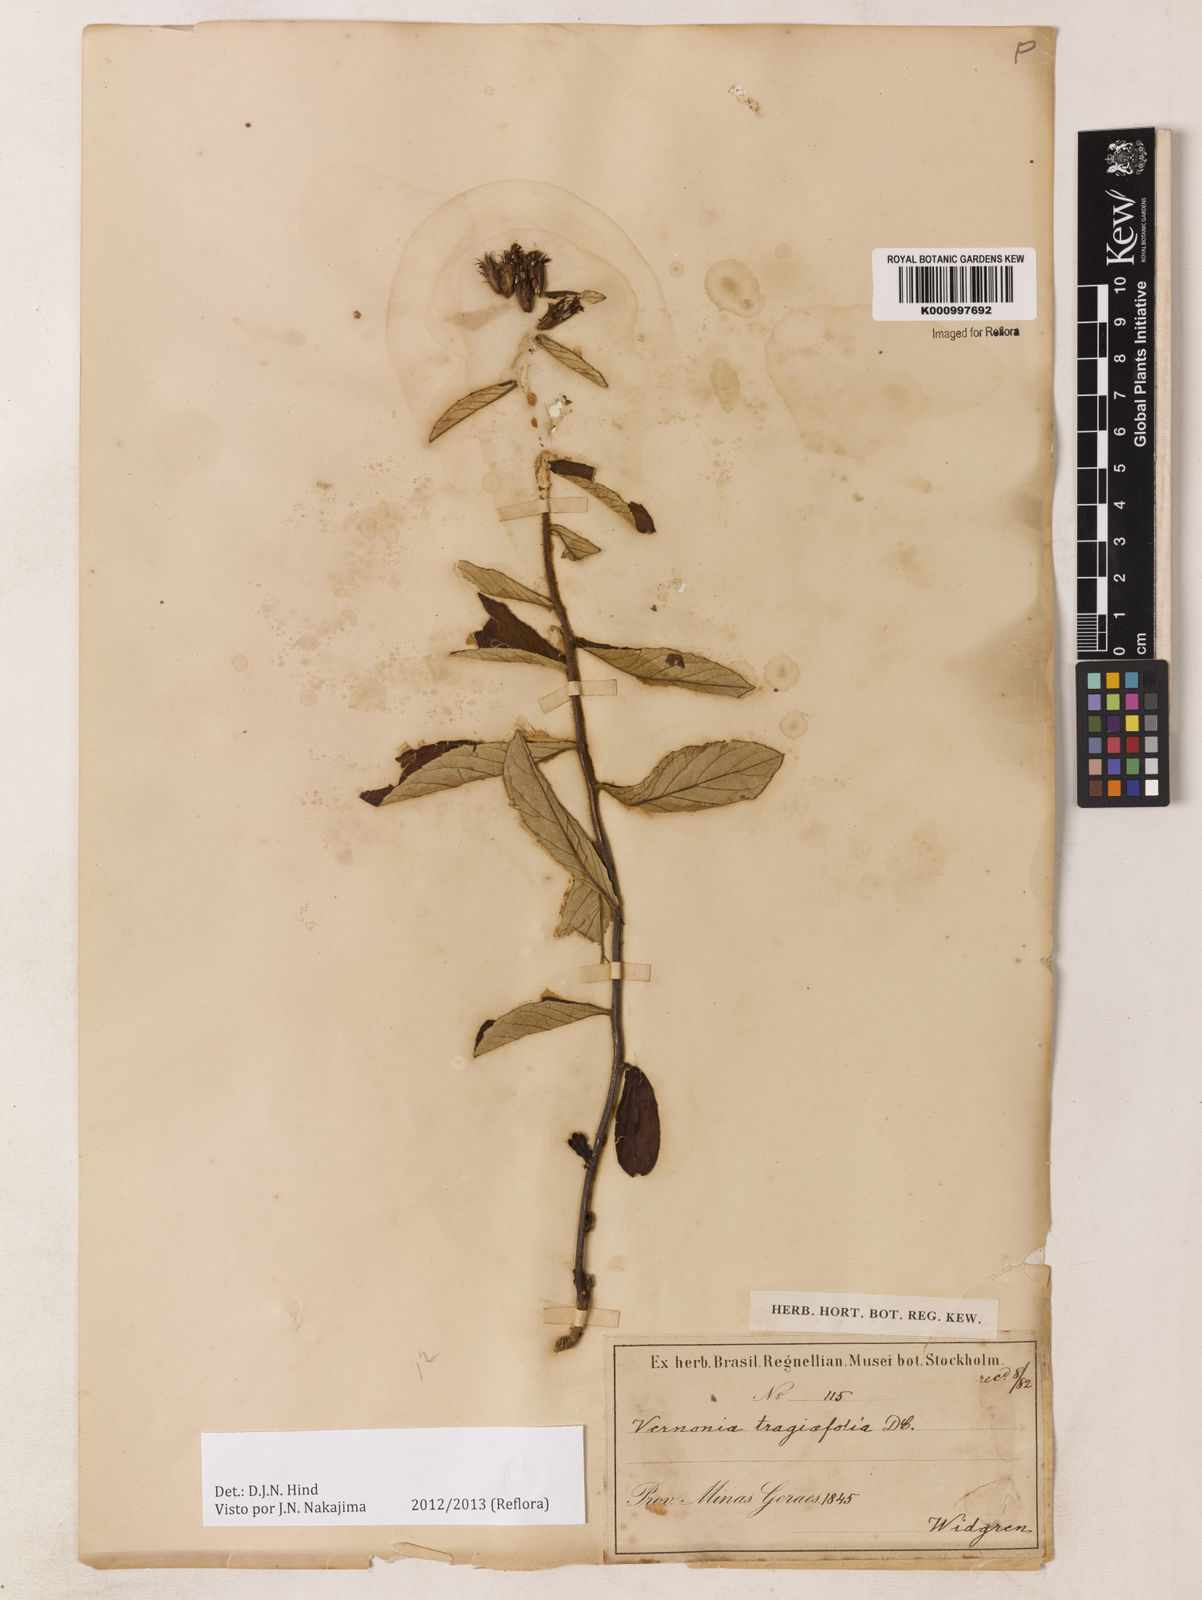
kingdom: Plantae
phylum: Tracheophyta
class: Magnoliopsida
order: Asterales
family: Asteraceae
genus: Vernonia
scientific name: Vernonia
